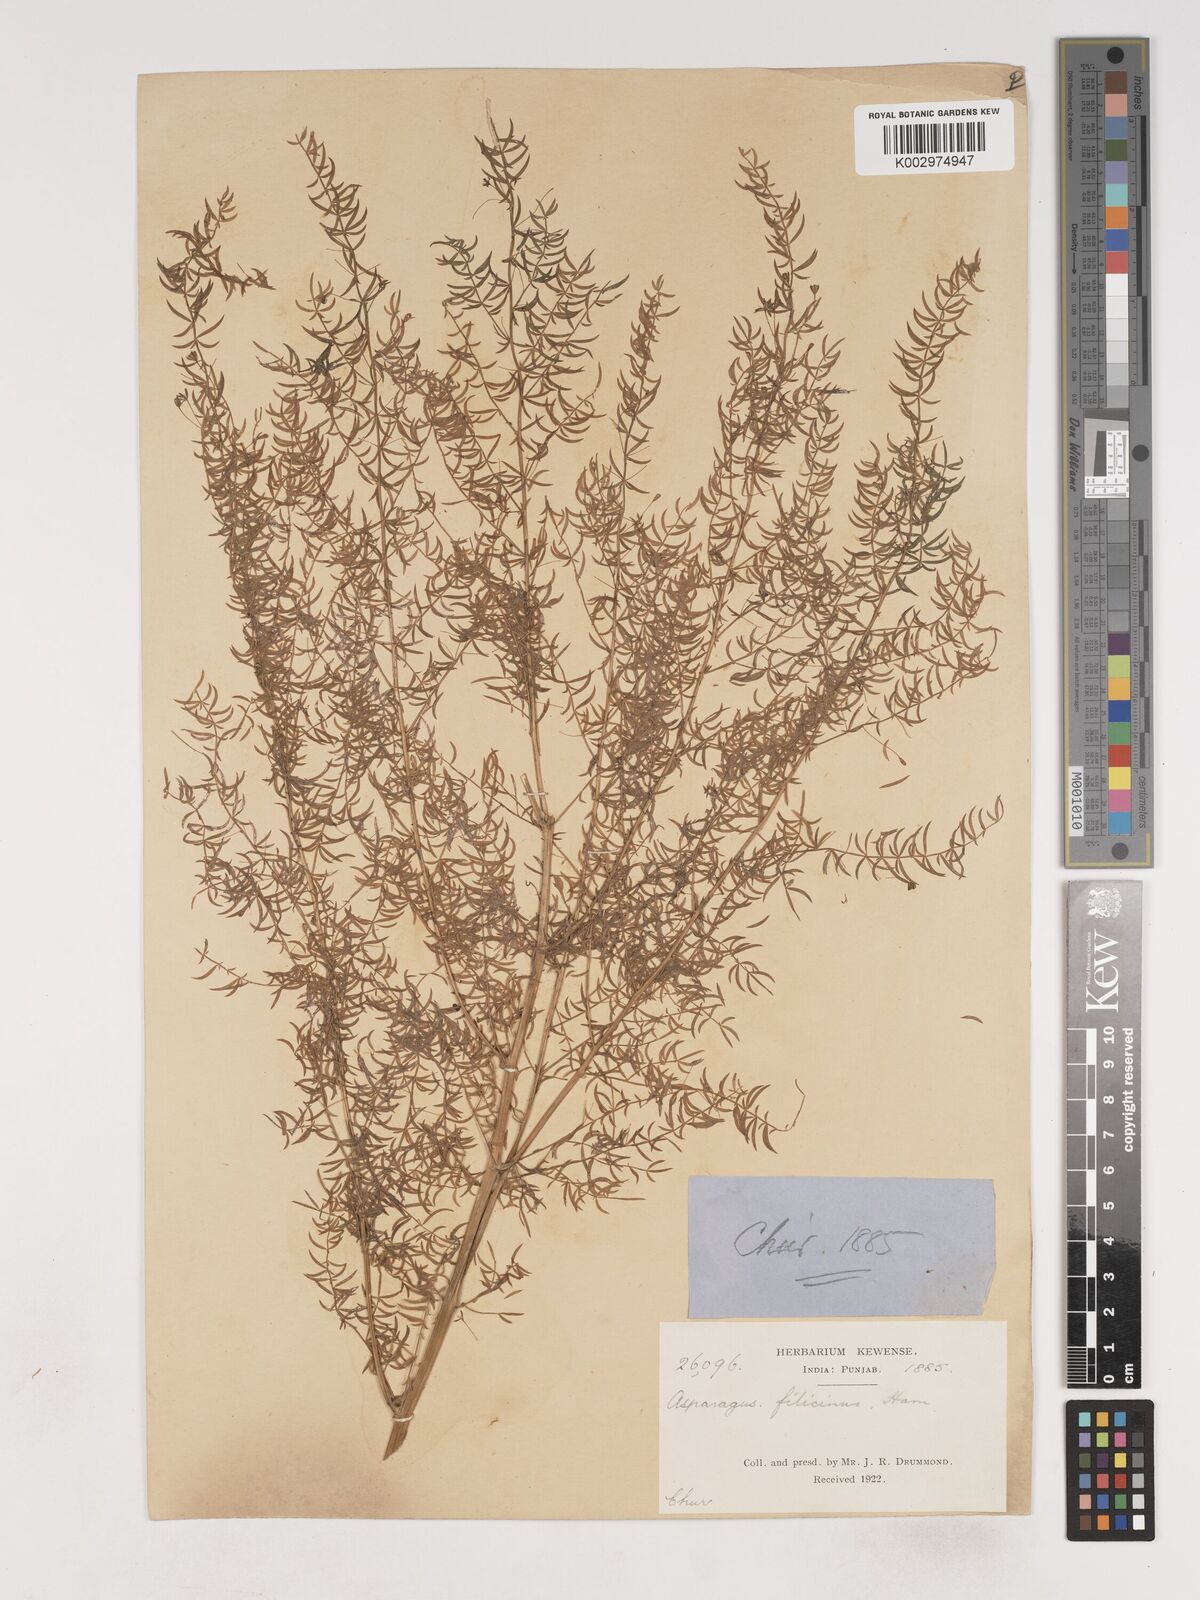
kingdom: Plantae
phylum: Tracheophyta
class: Liliopsida
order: Asparagales
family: Asparagaceae
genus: Asparagus
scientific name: Asparagus filicinus
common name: Fern asparagus
